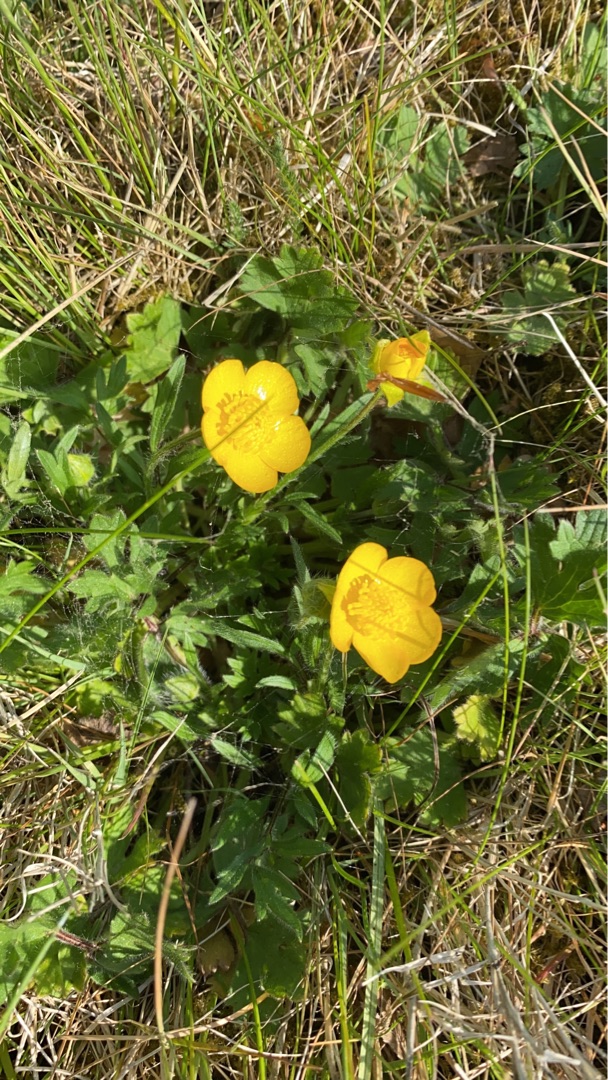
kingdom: Plantae
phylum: Tracheophyta
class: Magnoliopsida
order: Ranunculales
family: Ranunculaceae
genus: Ranunculus
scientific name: Ranunculus bulbosus
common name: Knold-ranunkel
